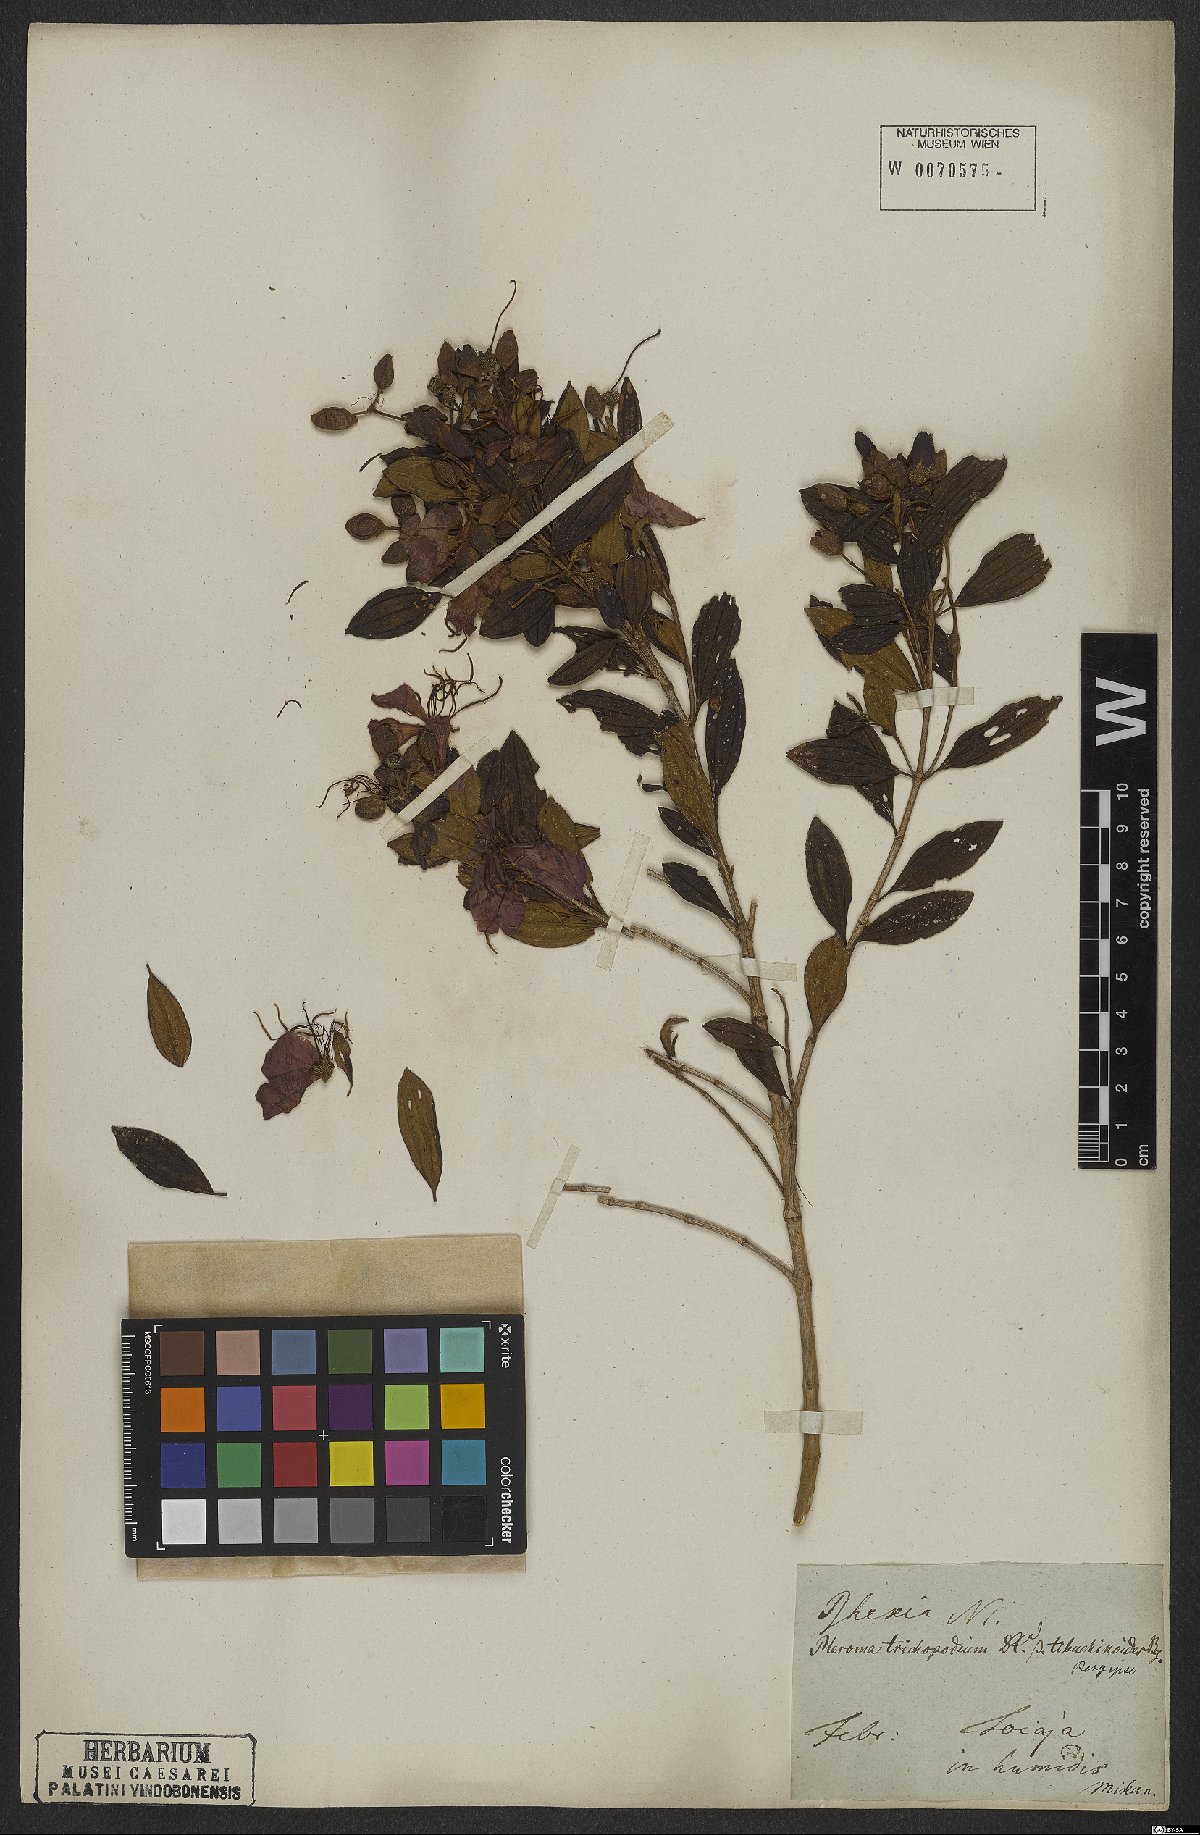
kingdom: Plantae
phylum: Tracheophyta
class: Magnoliopsida
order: Myrtales
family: Melastomataceae
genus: Pleroma
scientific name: Pleroma trichopodum
